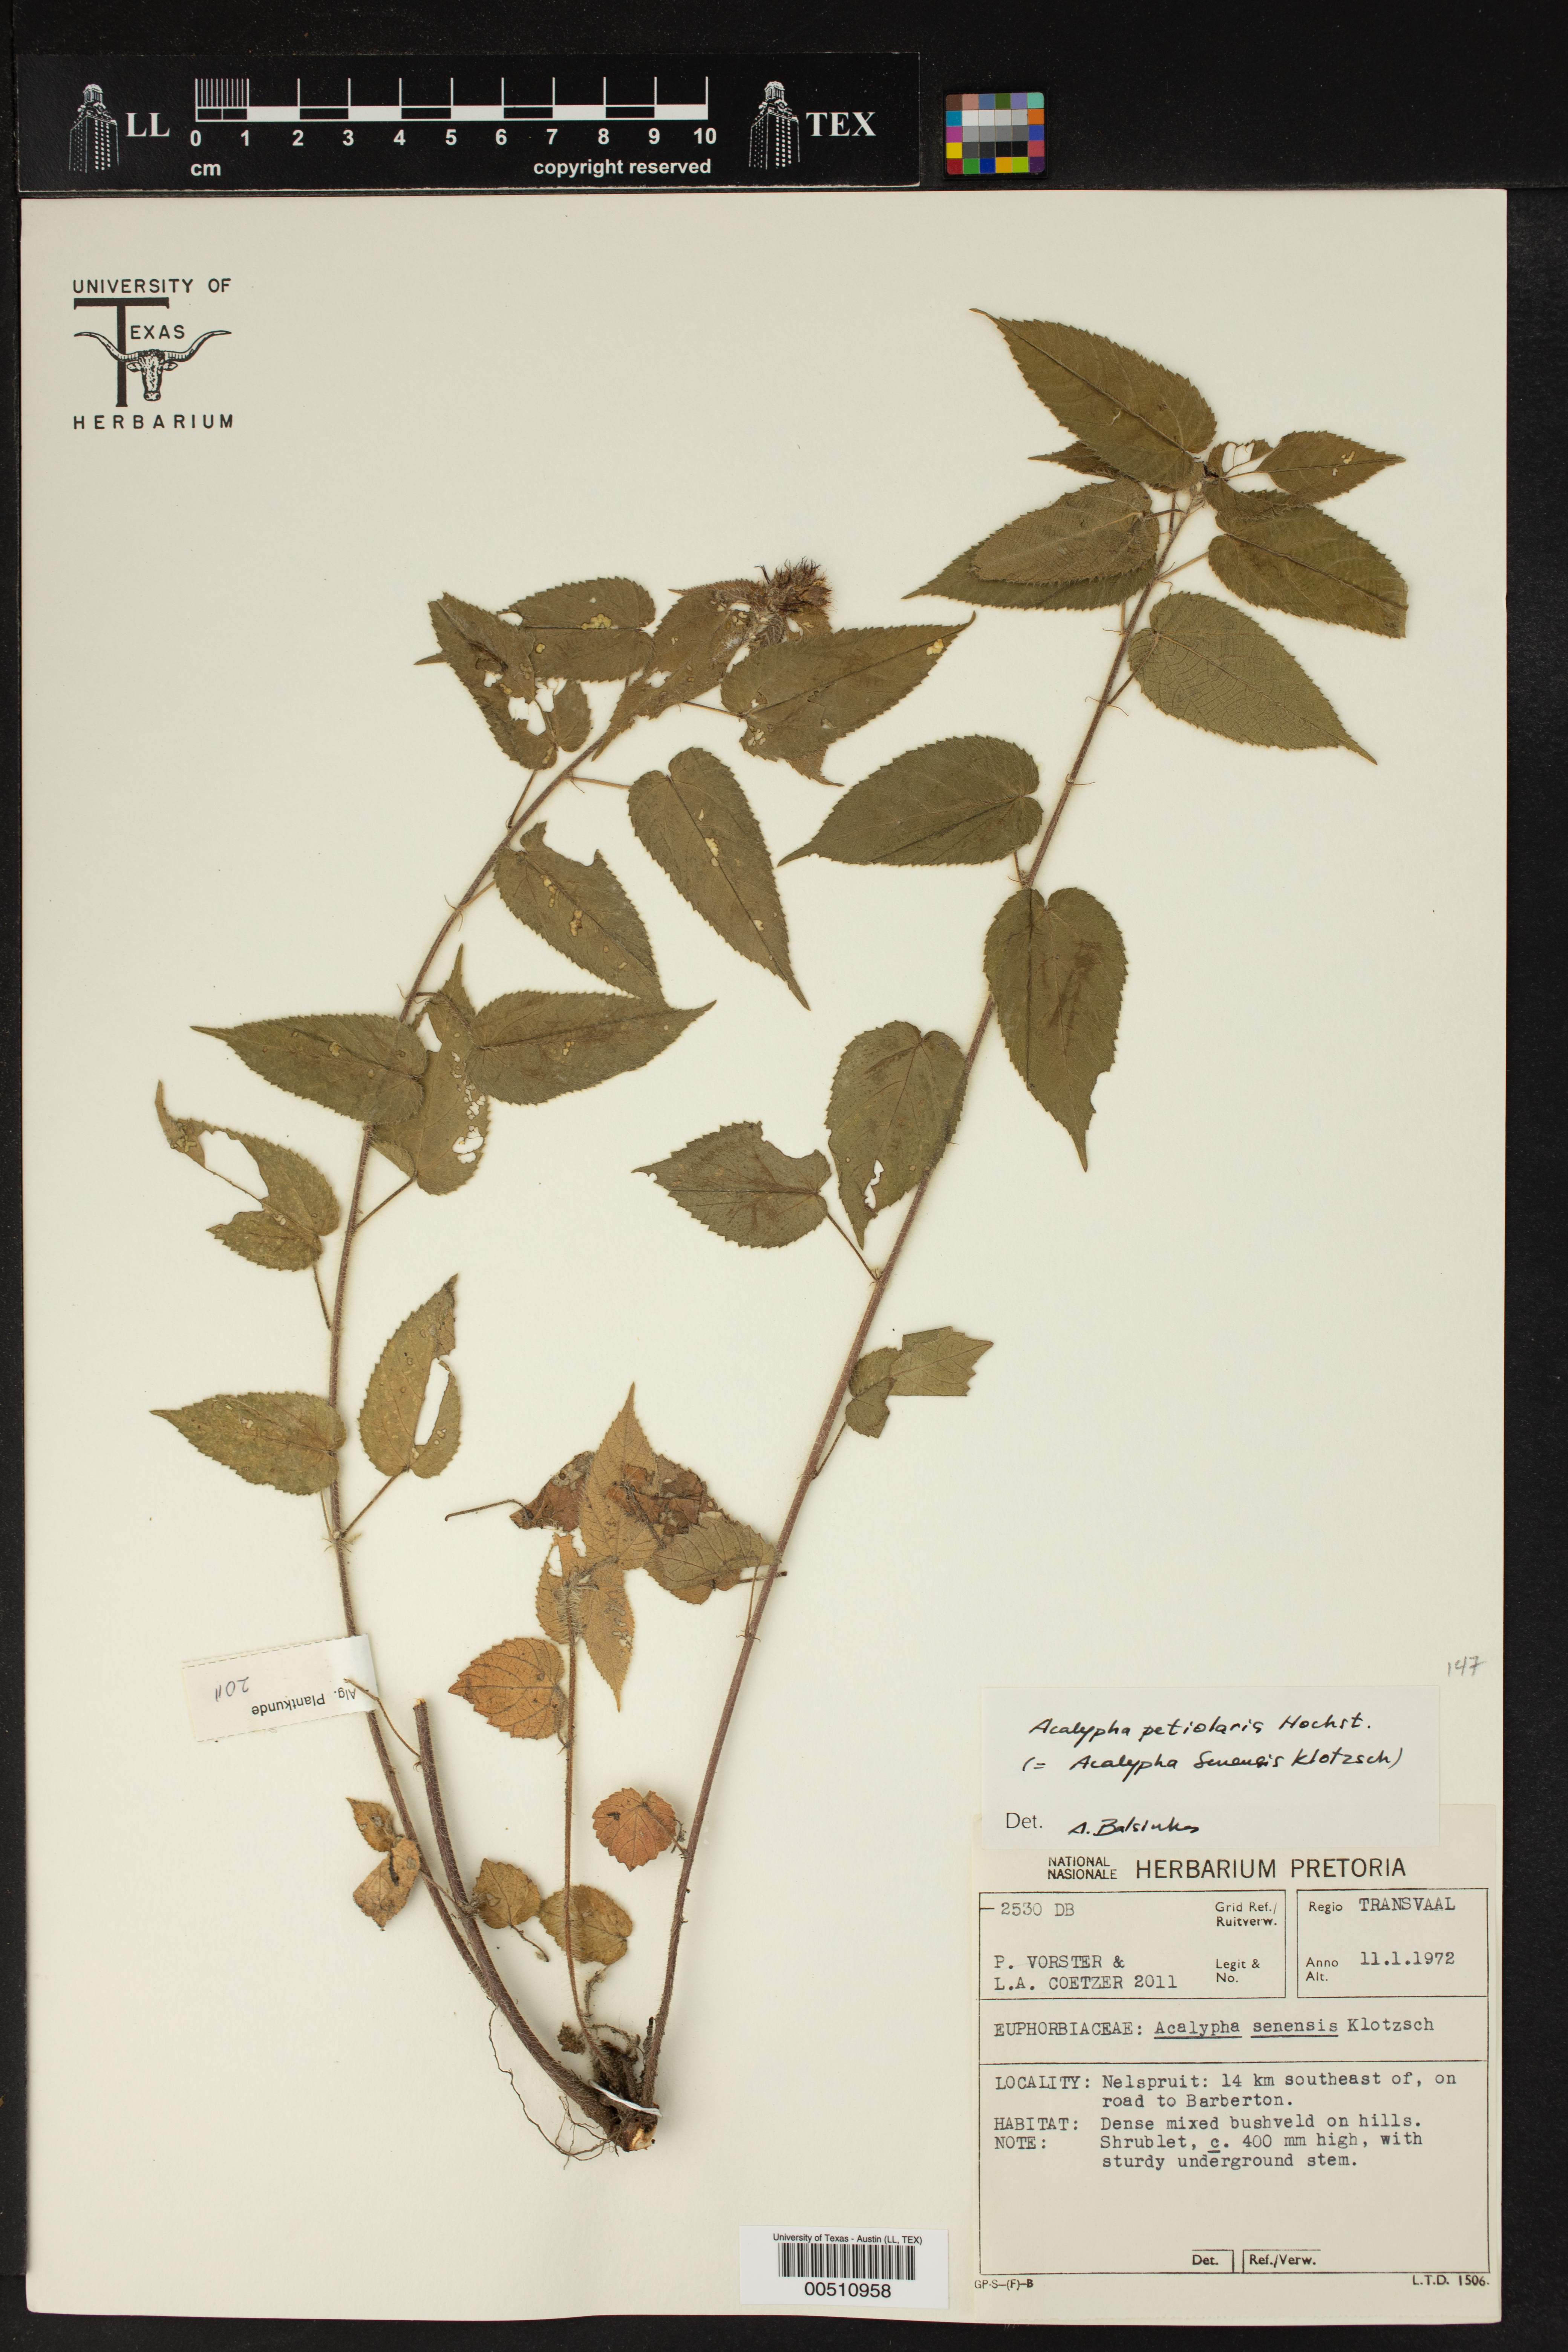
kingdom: Plantae
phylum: Tracheophyta
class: Magnoliopsida
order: Malpighiales
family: Euphorbiaceae
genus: Acalypha
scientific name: Acalypha petiolaris
